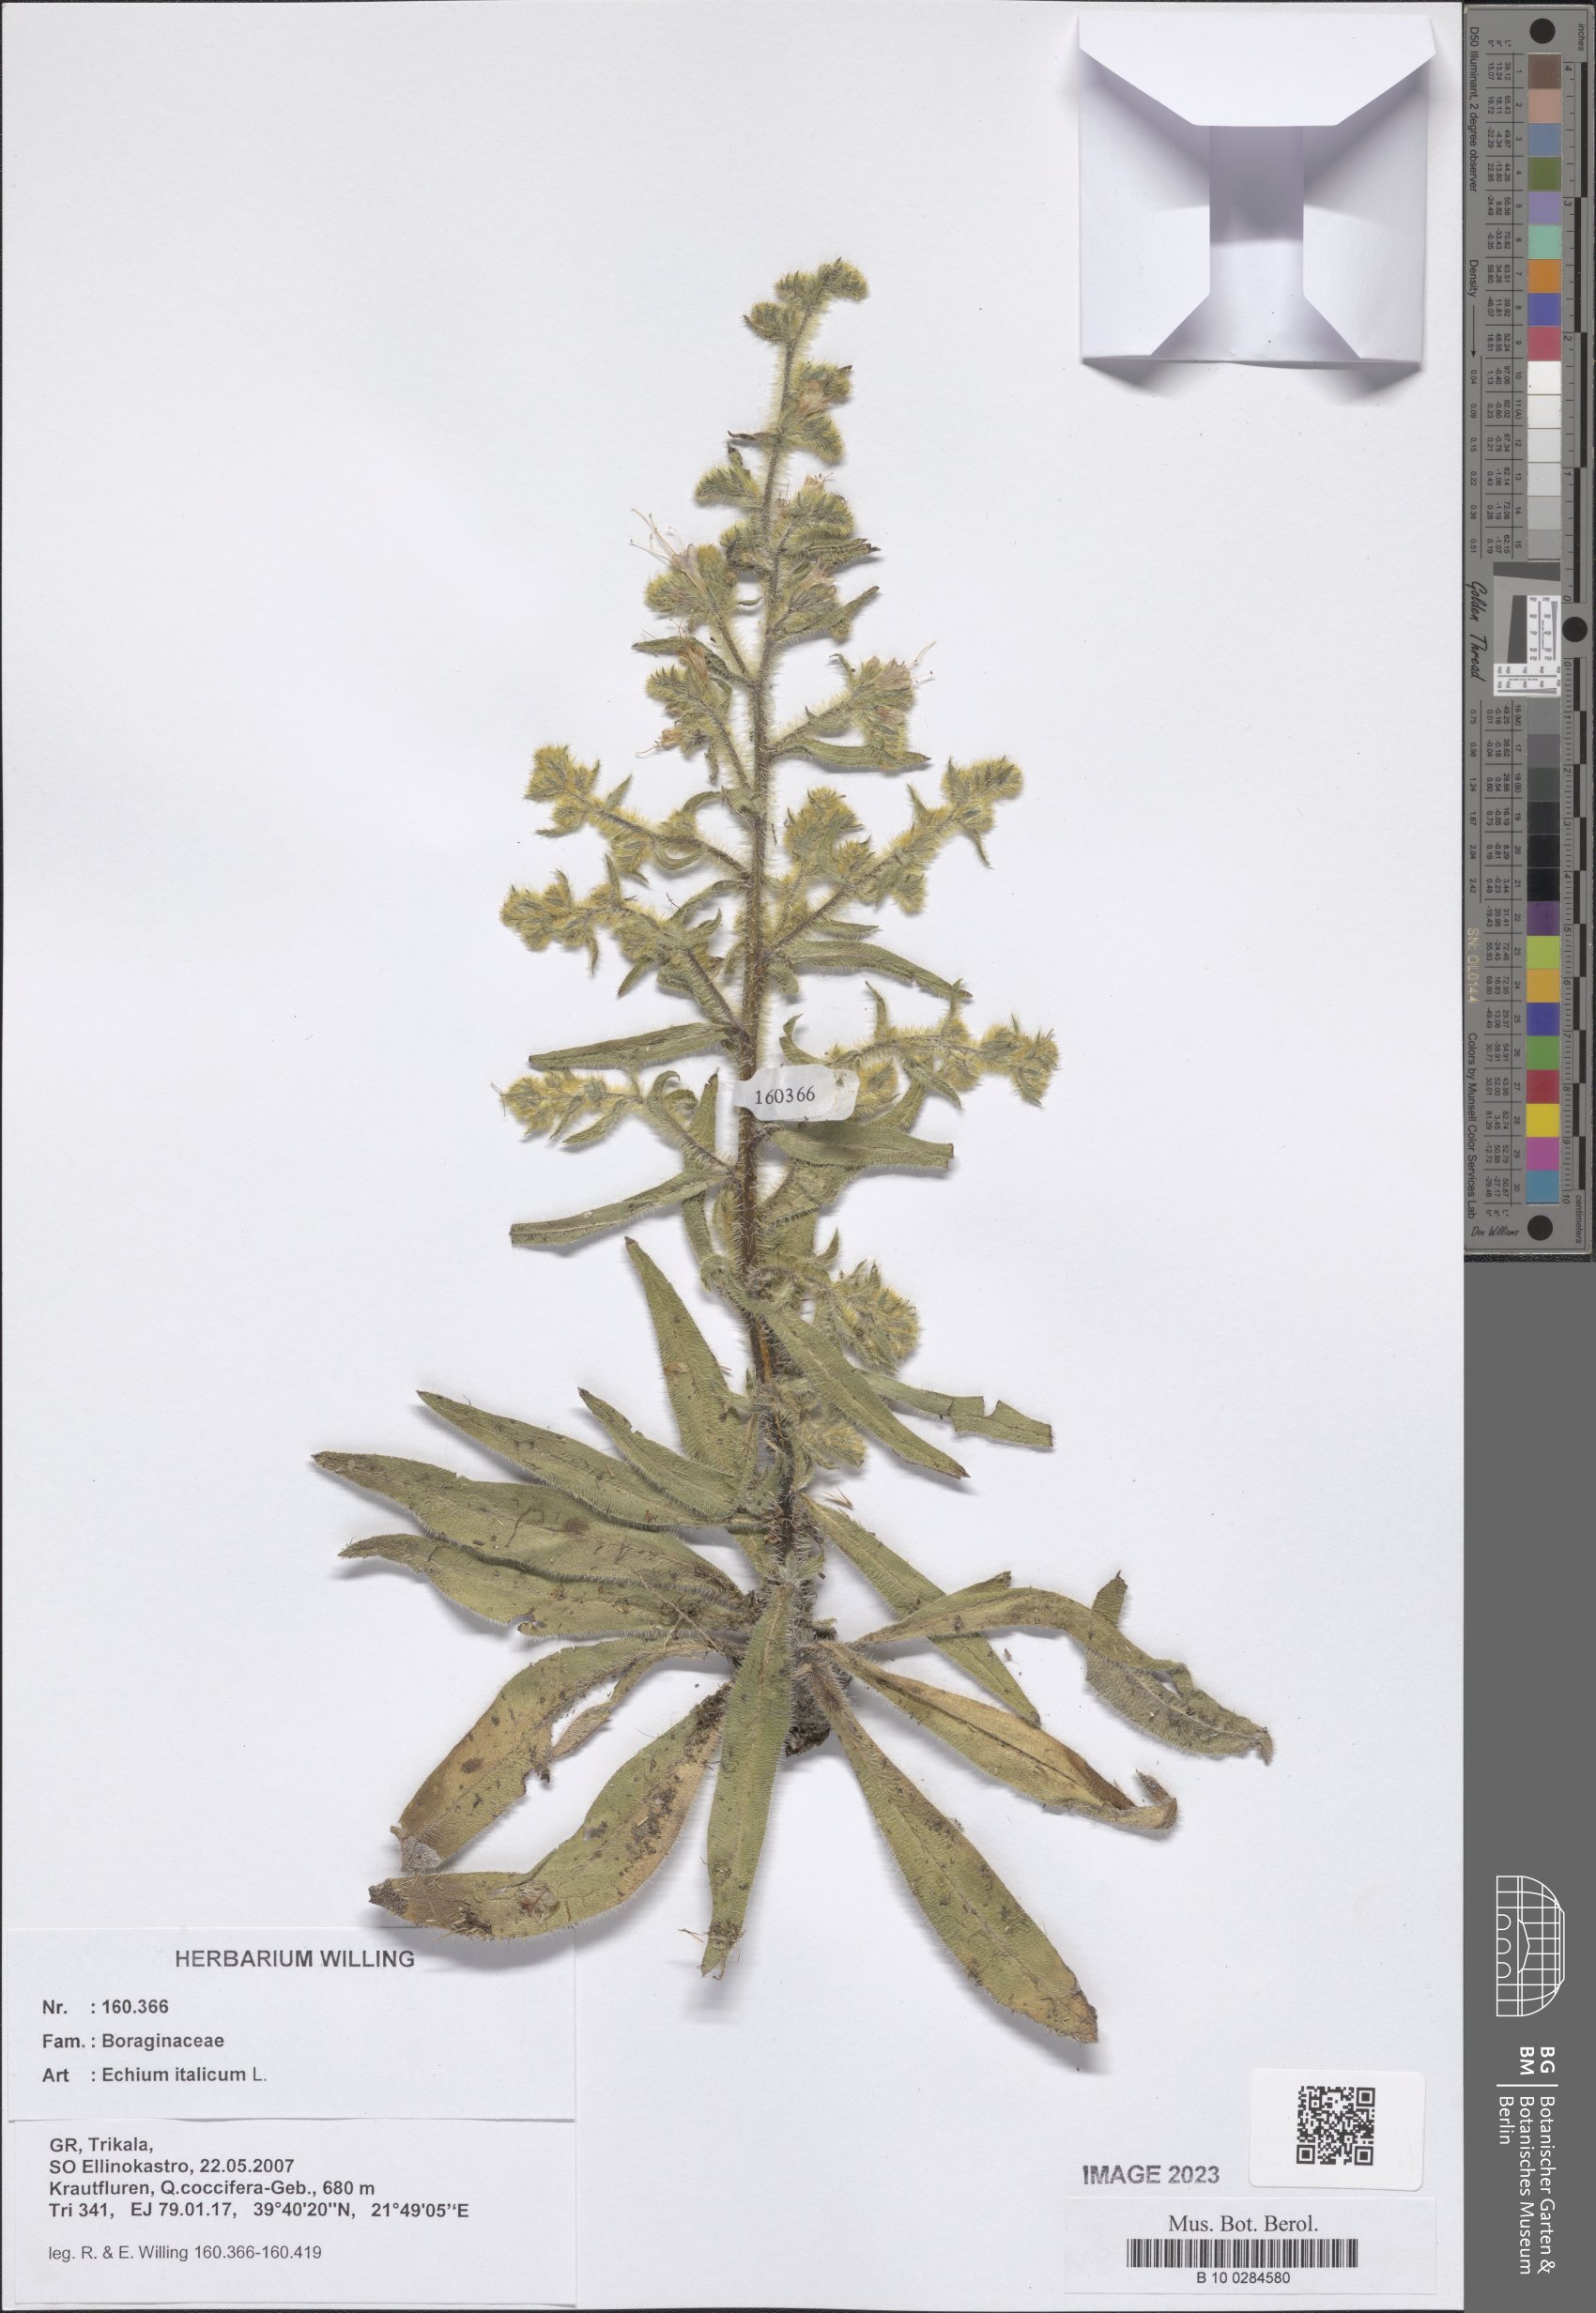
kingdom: Plantae
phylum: Tracheophyta
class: Magnoliopsida
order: Boraginales
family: Boraginaceae
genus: Echium
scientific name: Echium italicum
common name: Italian viper's bugloss
